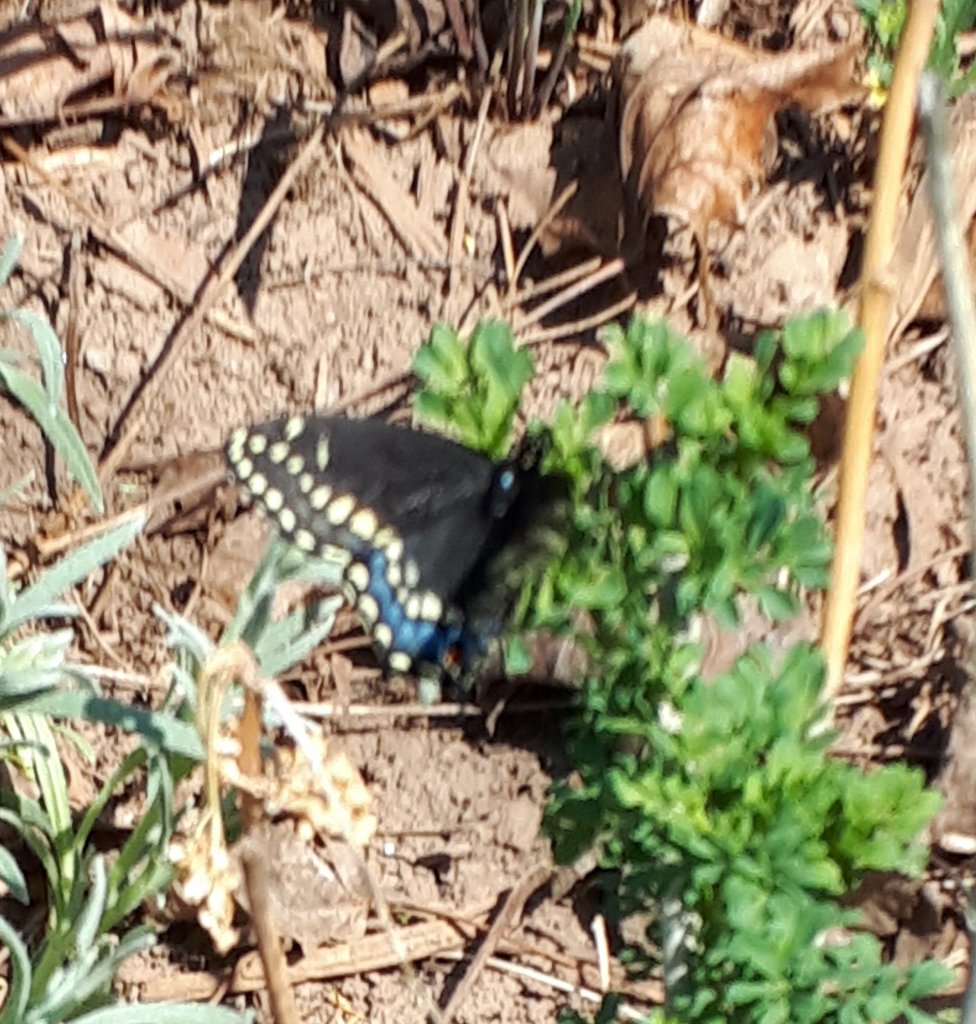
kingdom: Animalia
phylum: Arthropoda
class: Insecta
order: Lepidoptera
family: Papilionidae
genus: Papilio
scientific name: Papilio polyxenes
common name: Black Swallowtail
